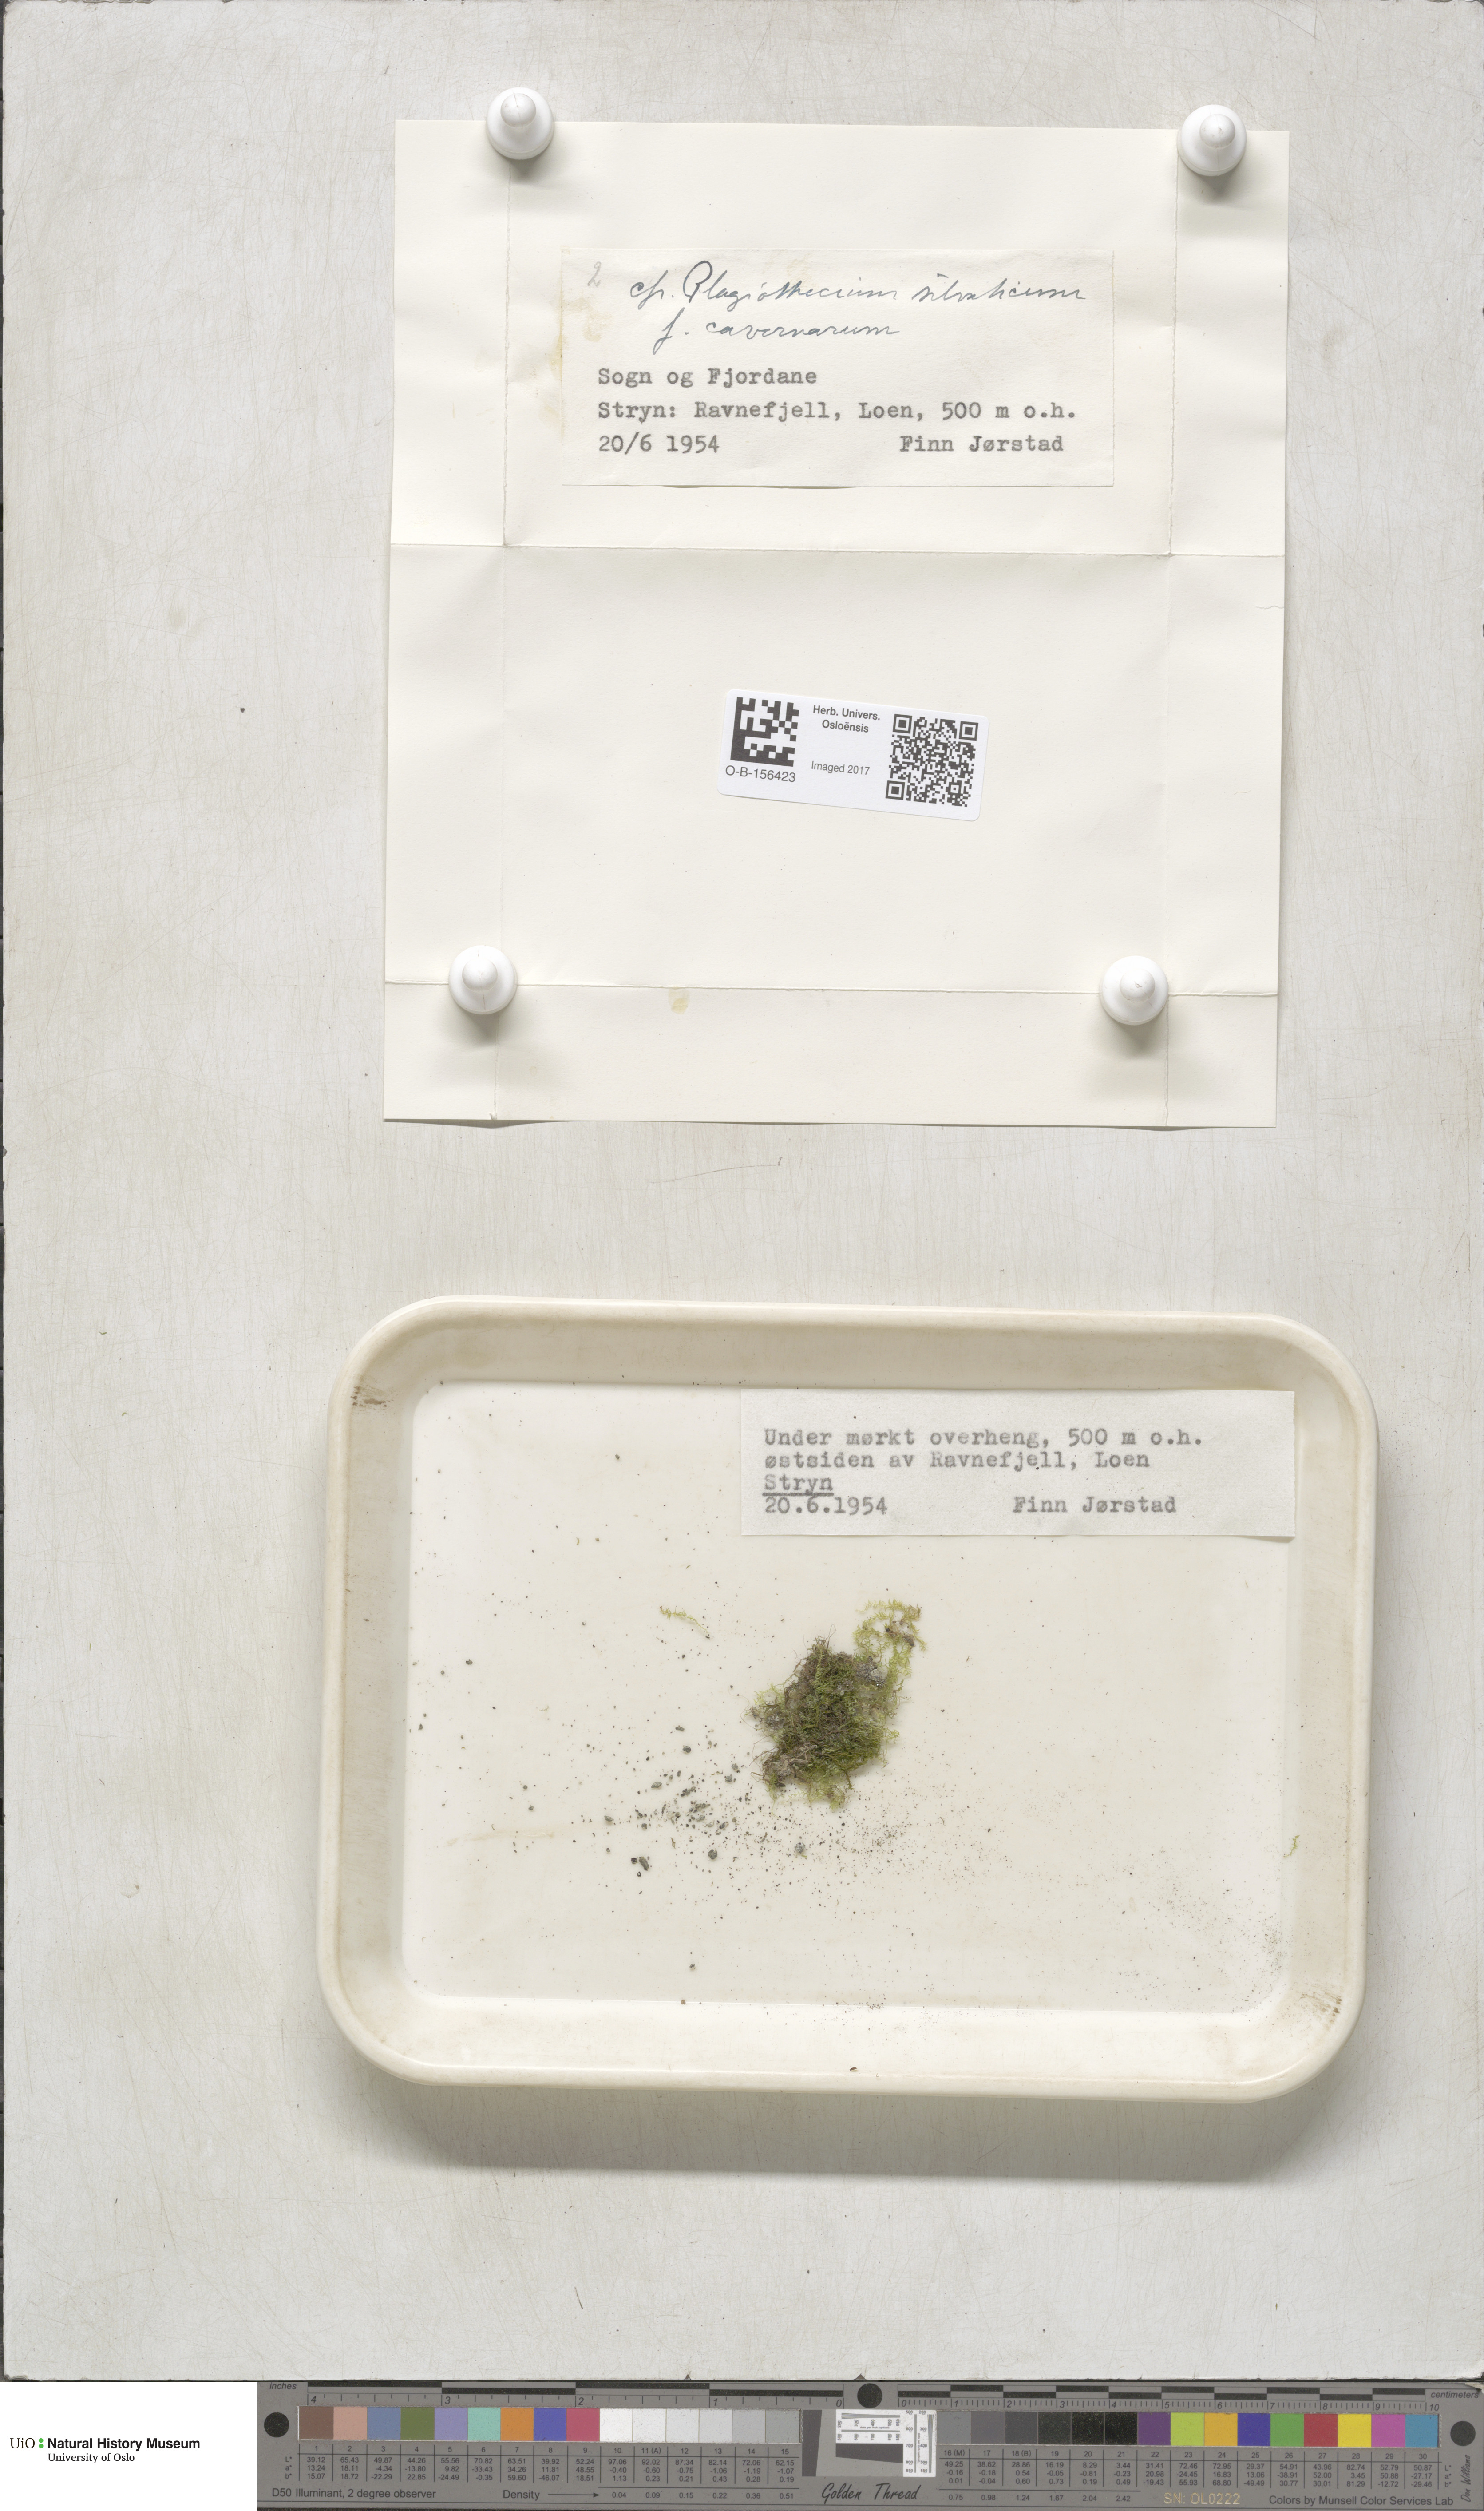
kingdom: Plantae
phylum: Bryophyta
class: Bryopsida
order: Hypnales
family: Plagiotheciaceae
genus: Plagiothecium
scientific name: Plagiothecium nemorale
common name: Woodsy silk-moss
